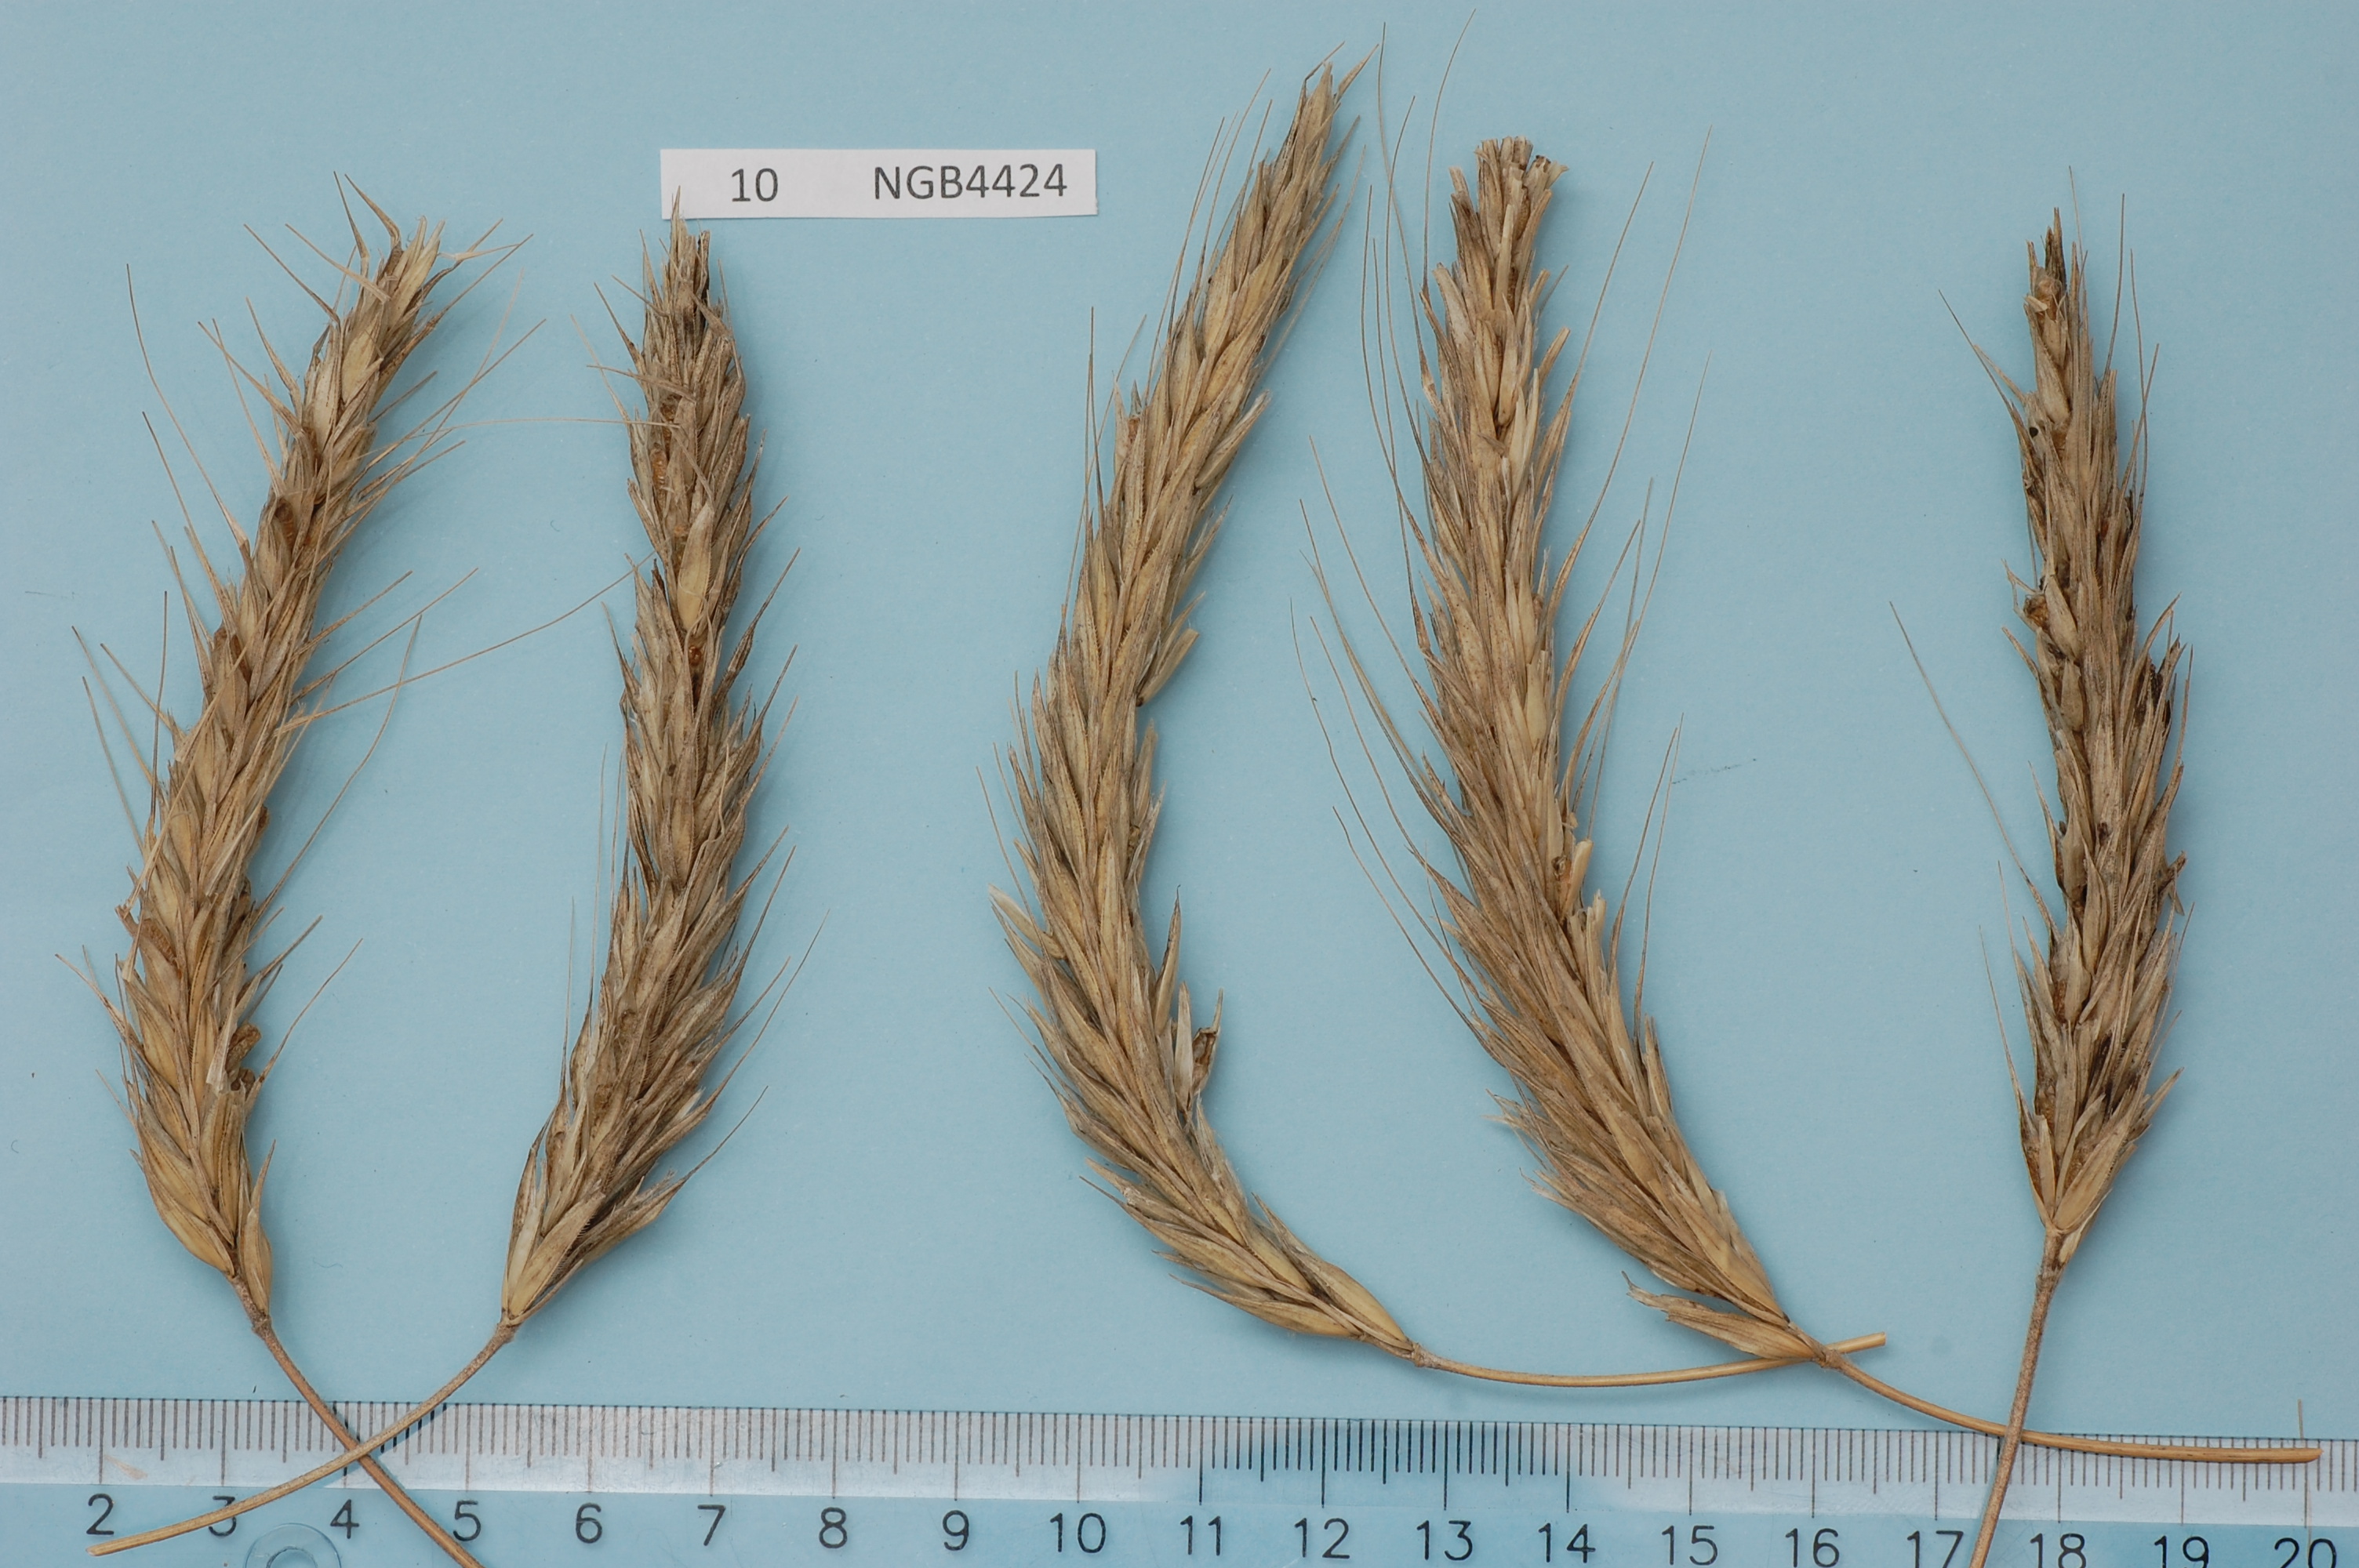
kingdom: Plantae
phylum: Tracheophyta
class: Liliopsida
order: Poales
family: Poaceae
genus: Secale
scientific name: Secale cereale
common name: Rye
